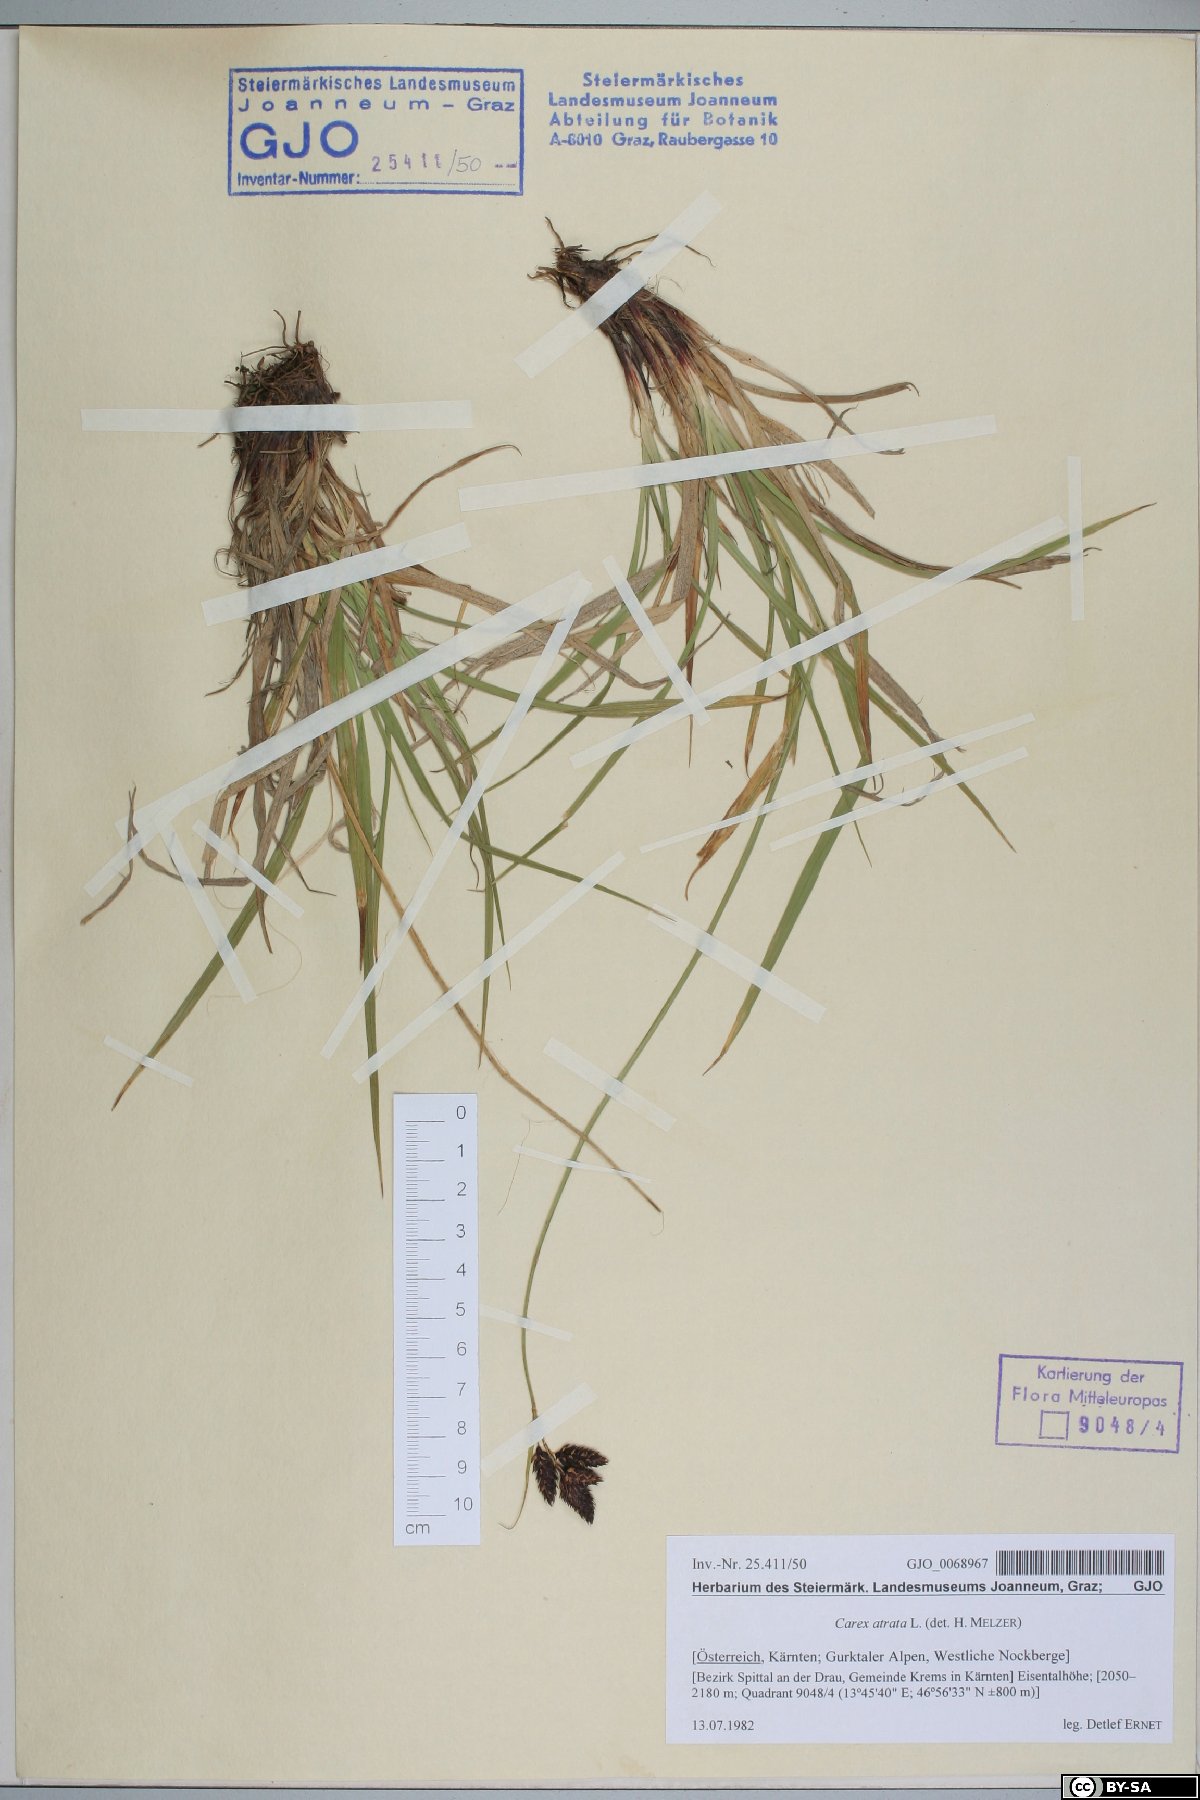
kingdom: Plantae
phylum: Tracheophyta
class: Liliopsida
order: Poales
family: Cyperaceae
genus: Carex
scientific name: Carex atrata
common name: Black alpine sedge
